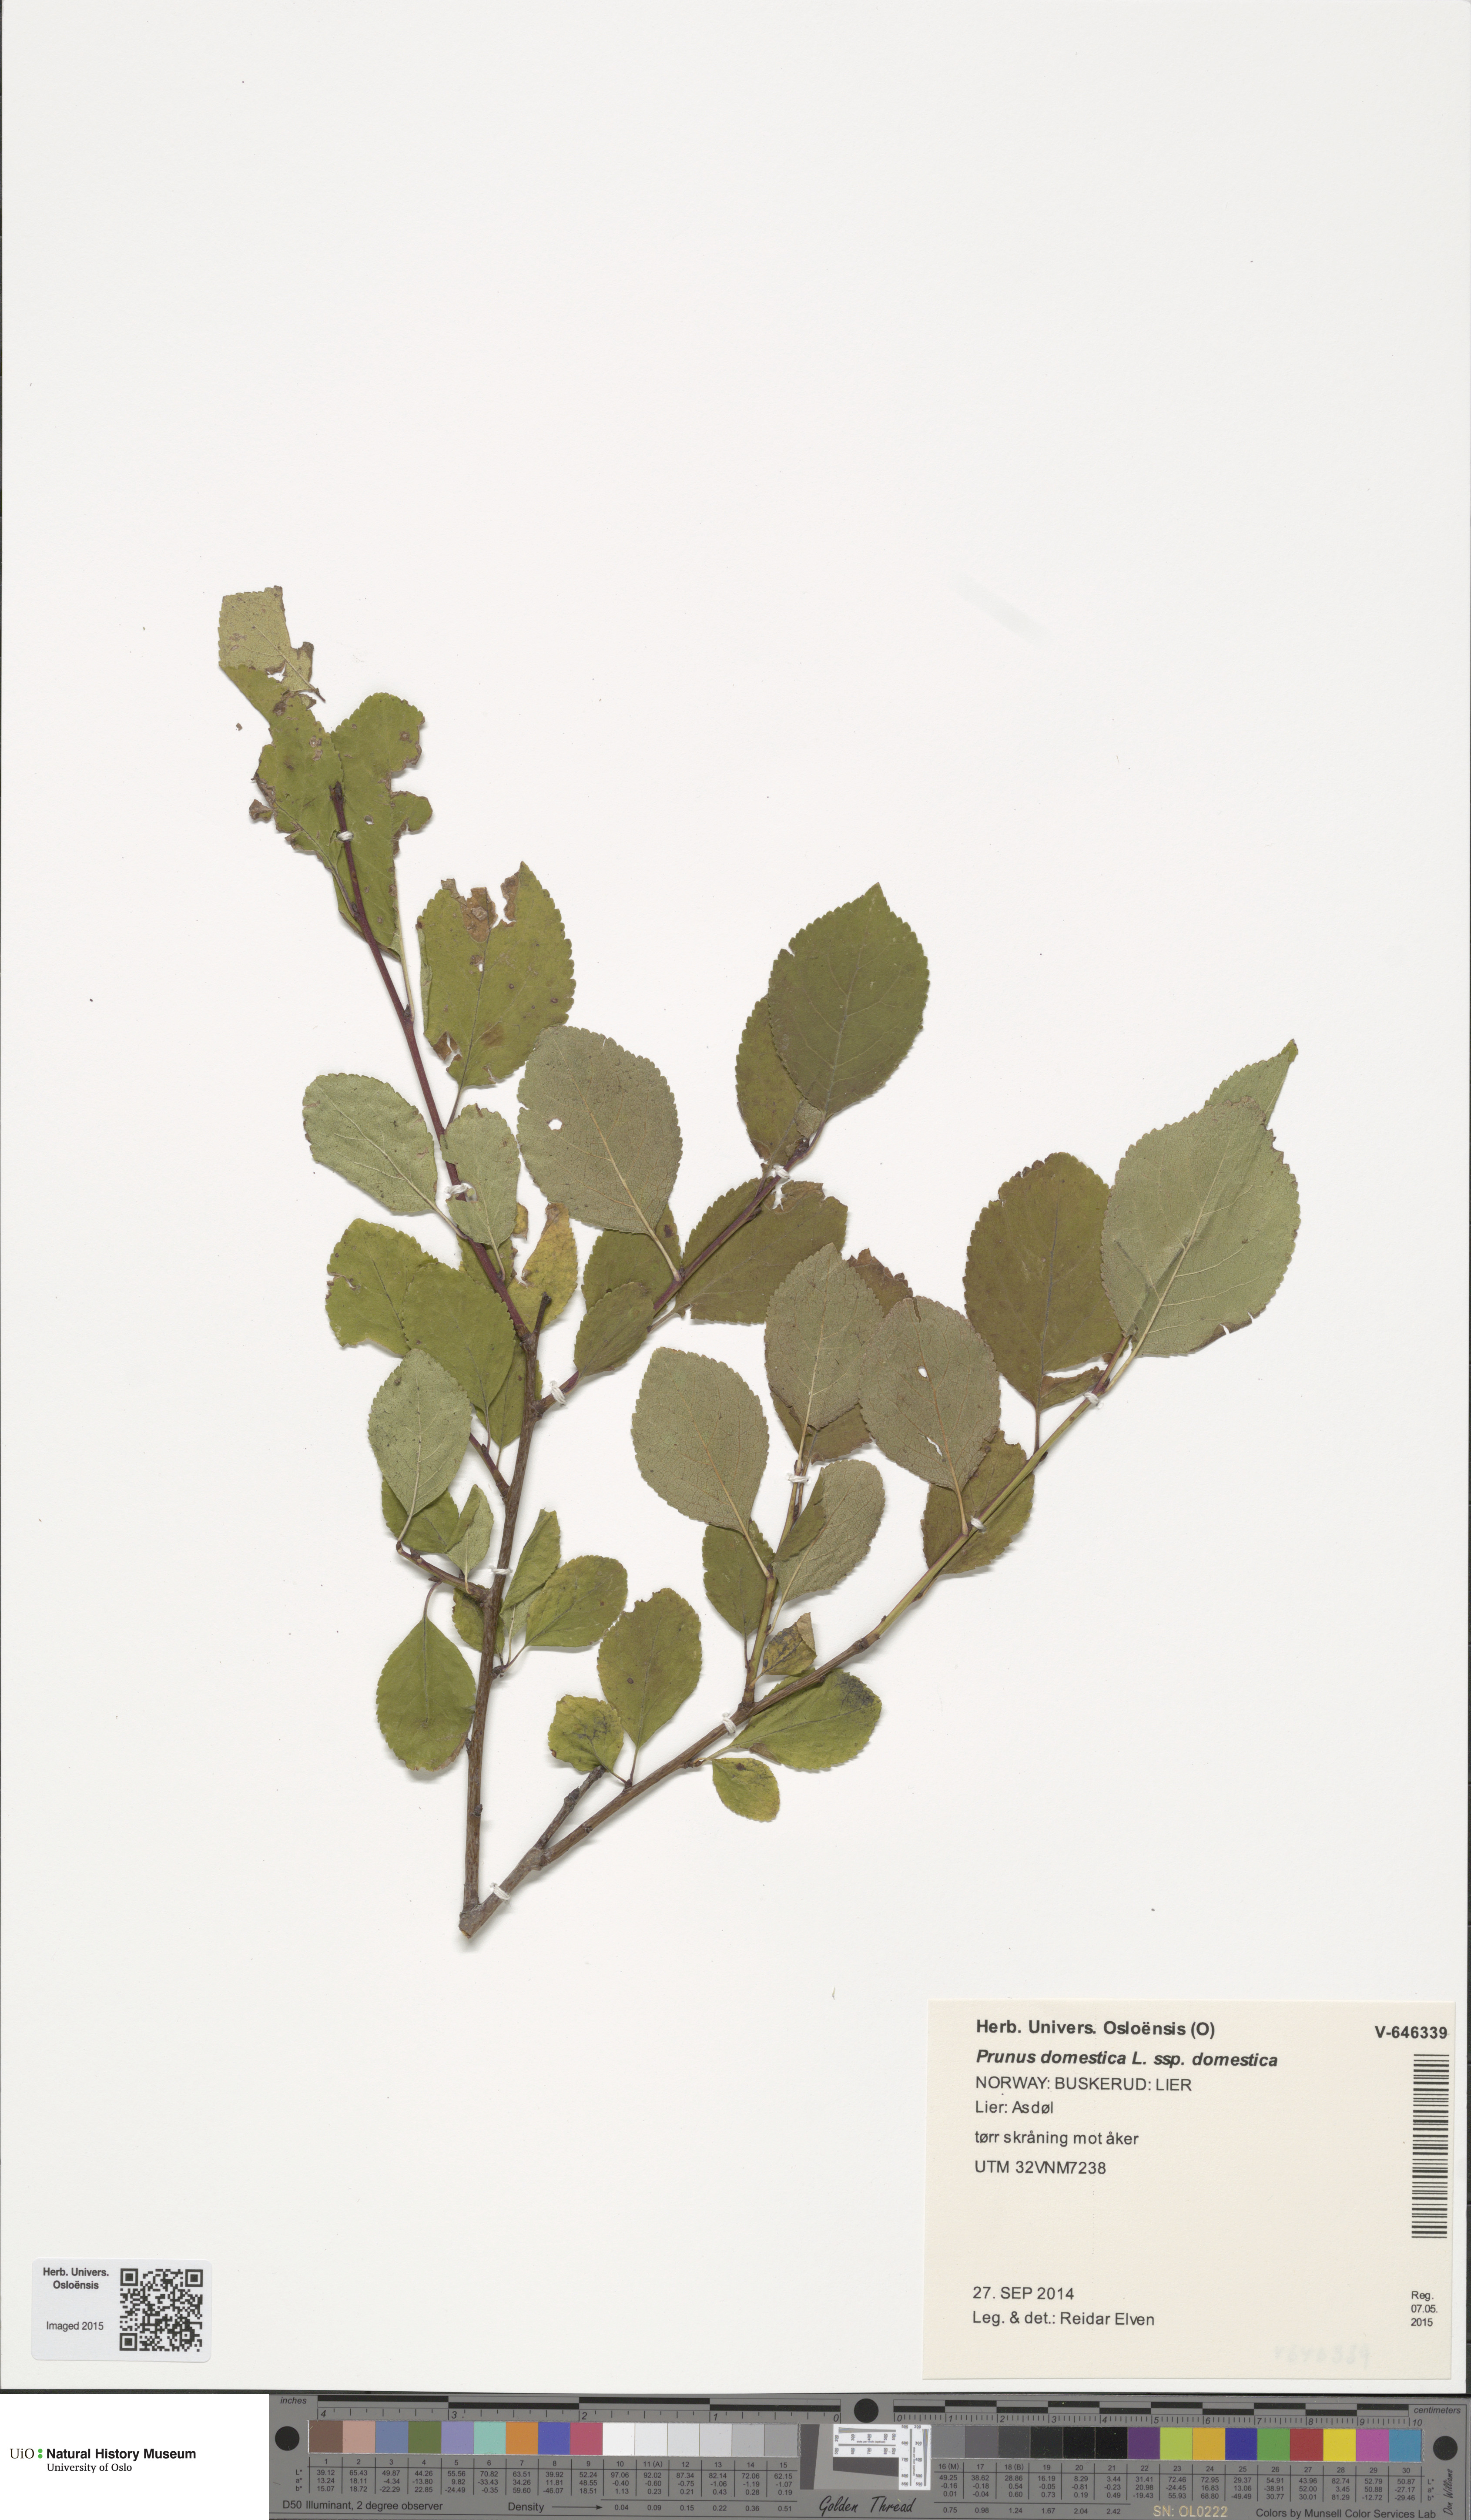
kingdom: Plantae
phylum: Tracheophyta
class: Magnoliopsida
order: Rosales
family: Rosaceae
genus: Prunus
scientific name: Prunus domestica
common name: Wild plum
